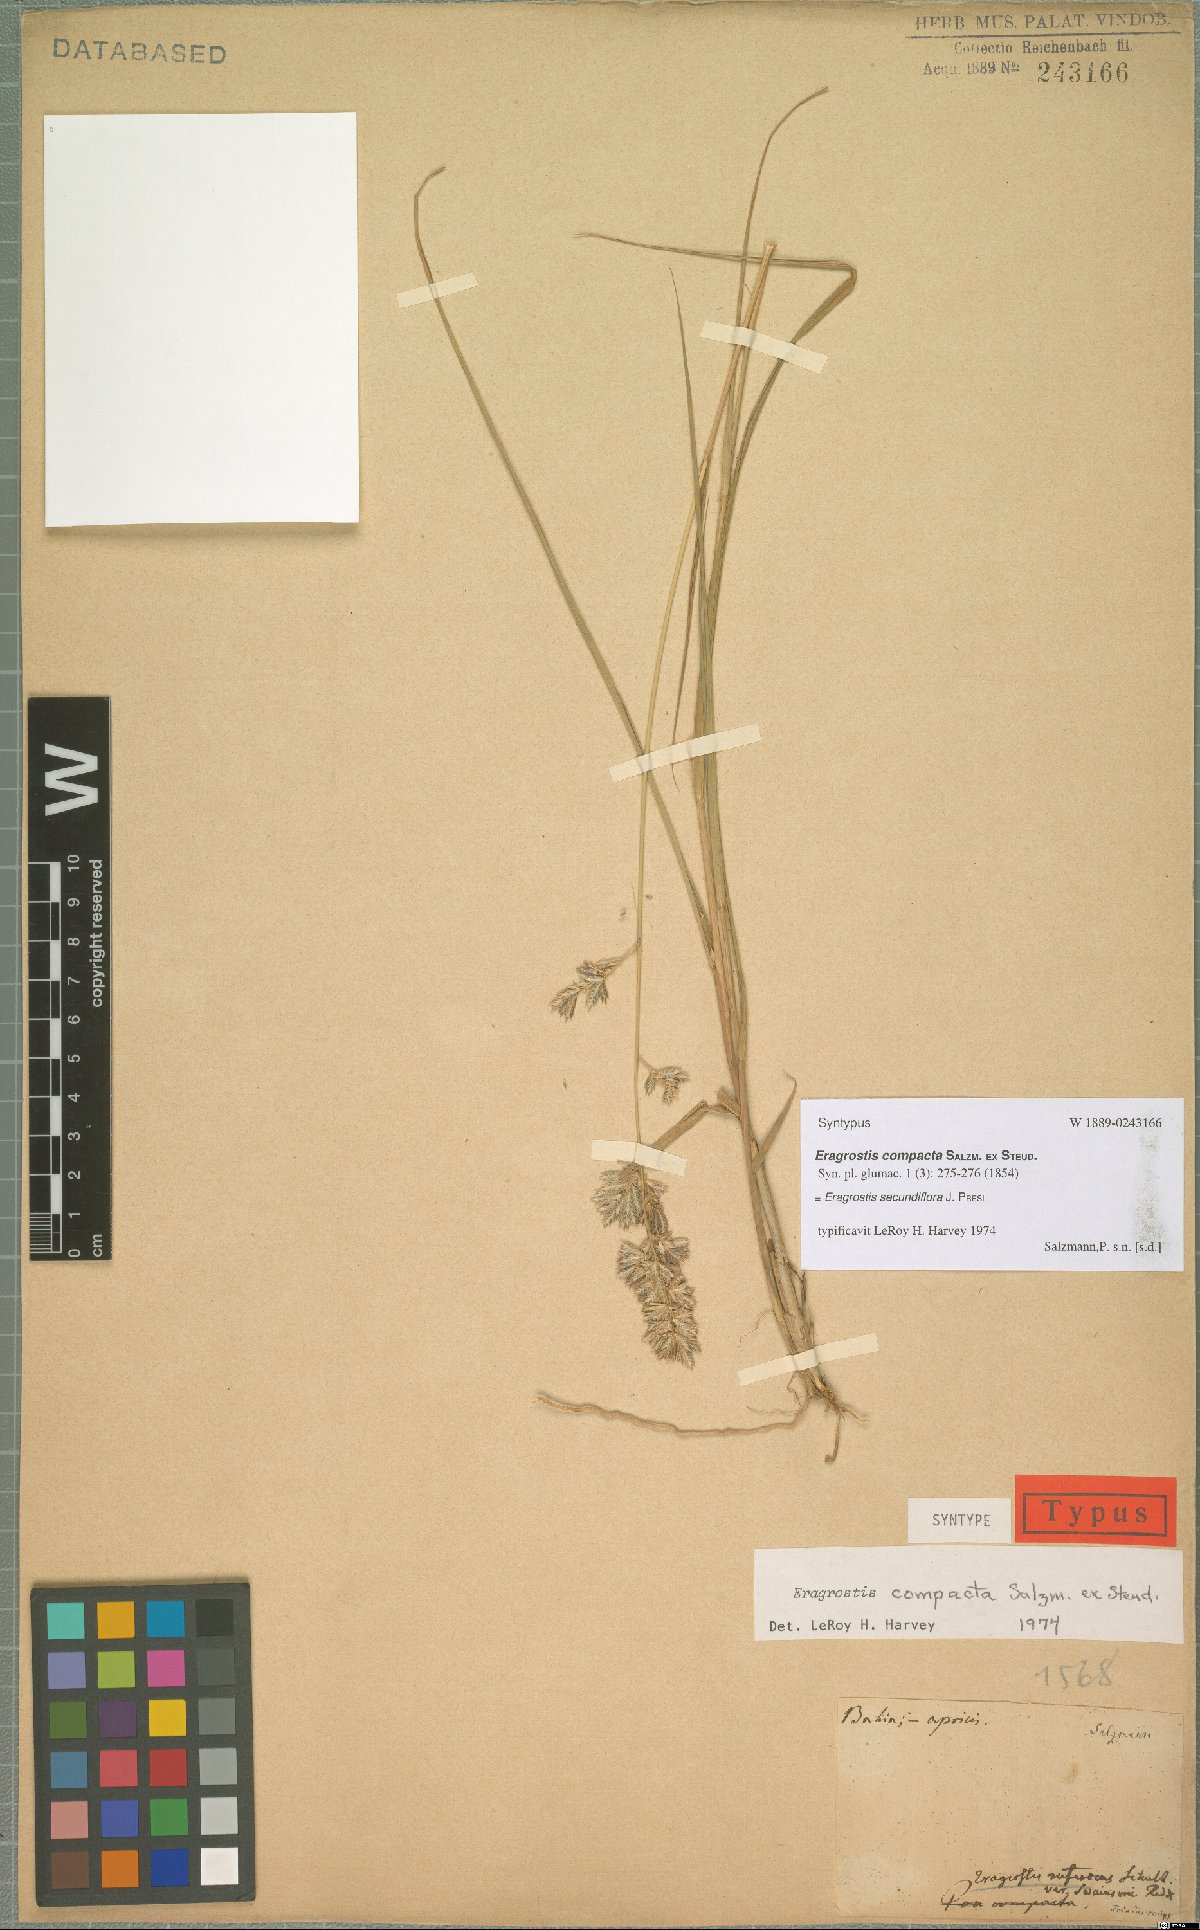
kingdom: Plantae
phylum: Tracheophyta
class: Liliopsida
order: Poales
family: Poaceae
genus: Eragrostis
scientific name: Eragrostis secundiflora
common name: Red love grass
